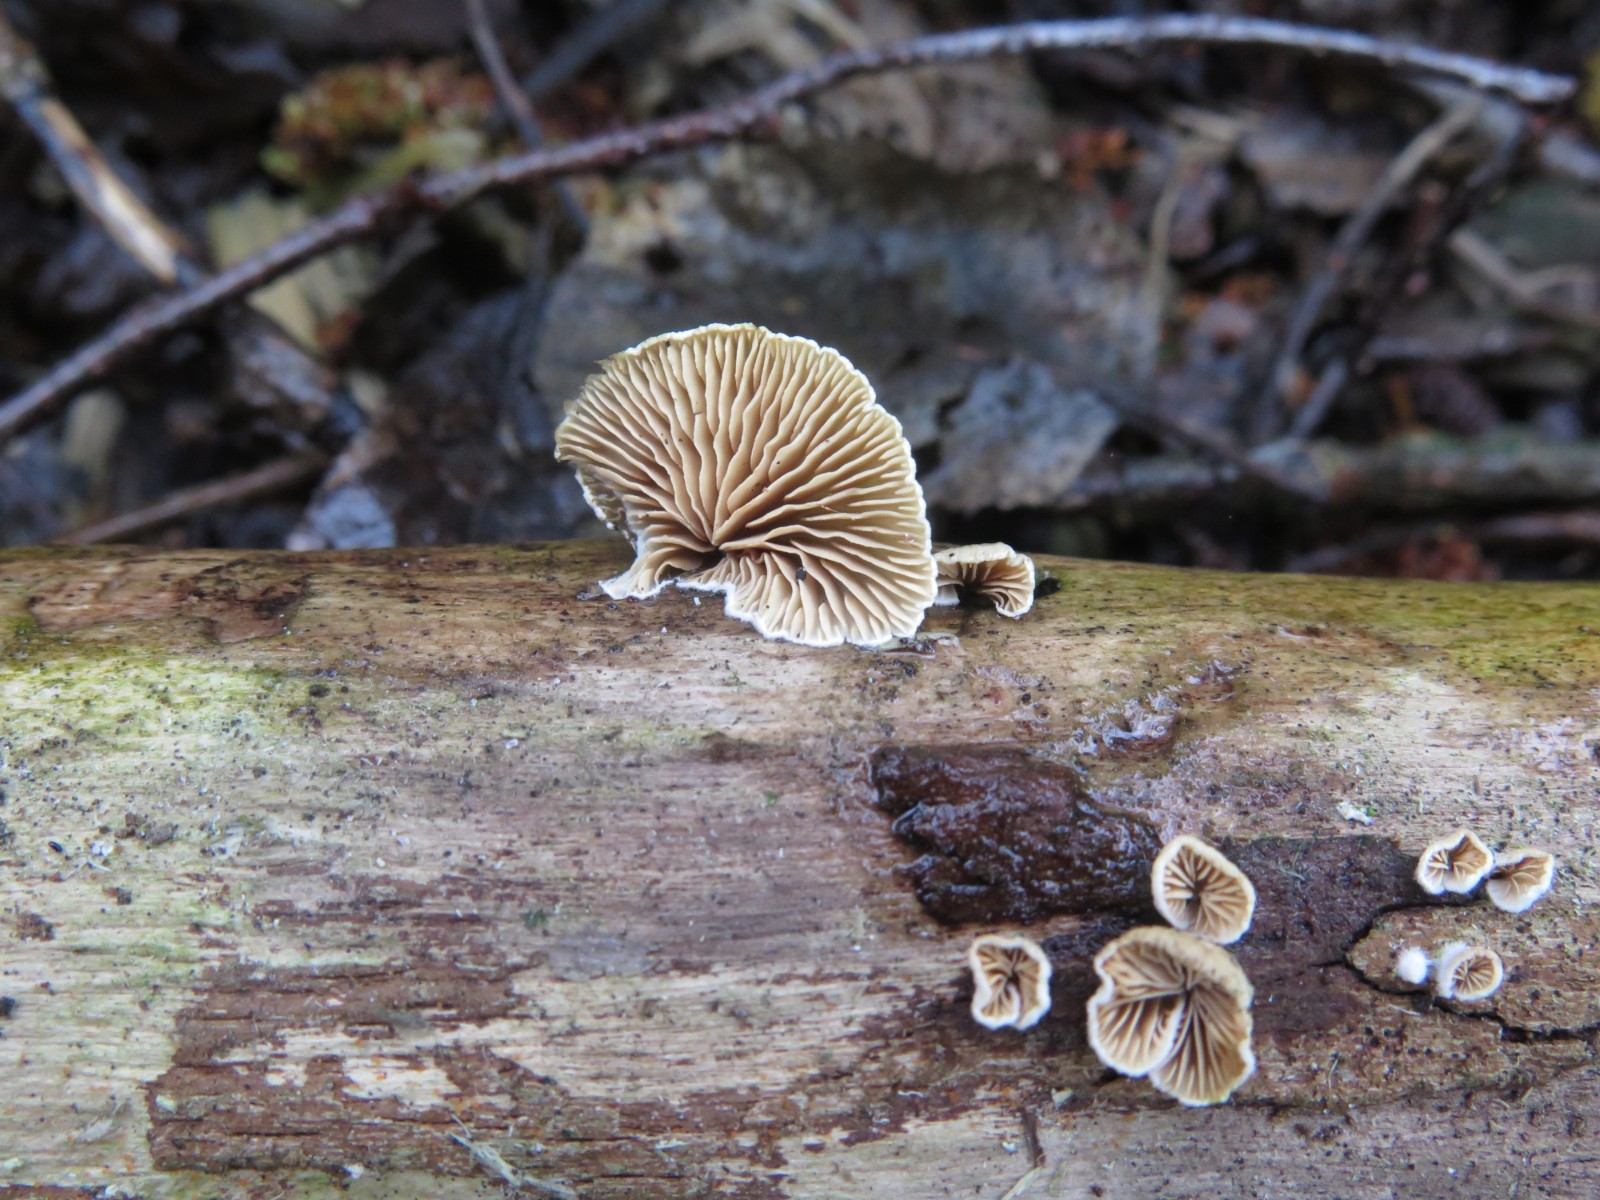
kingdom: Fungi
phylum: Basidiomycota
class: Agaricomycetes
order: Agaricales
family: Crepidotaceae
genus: Crepidotus
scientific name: Crepidotus cesatii
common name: almindelig muslingesvamp
